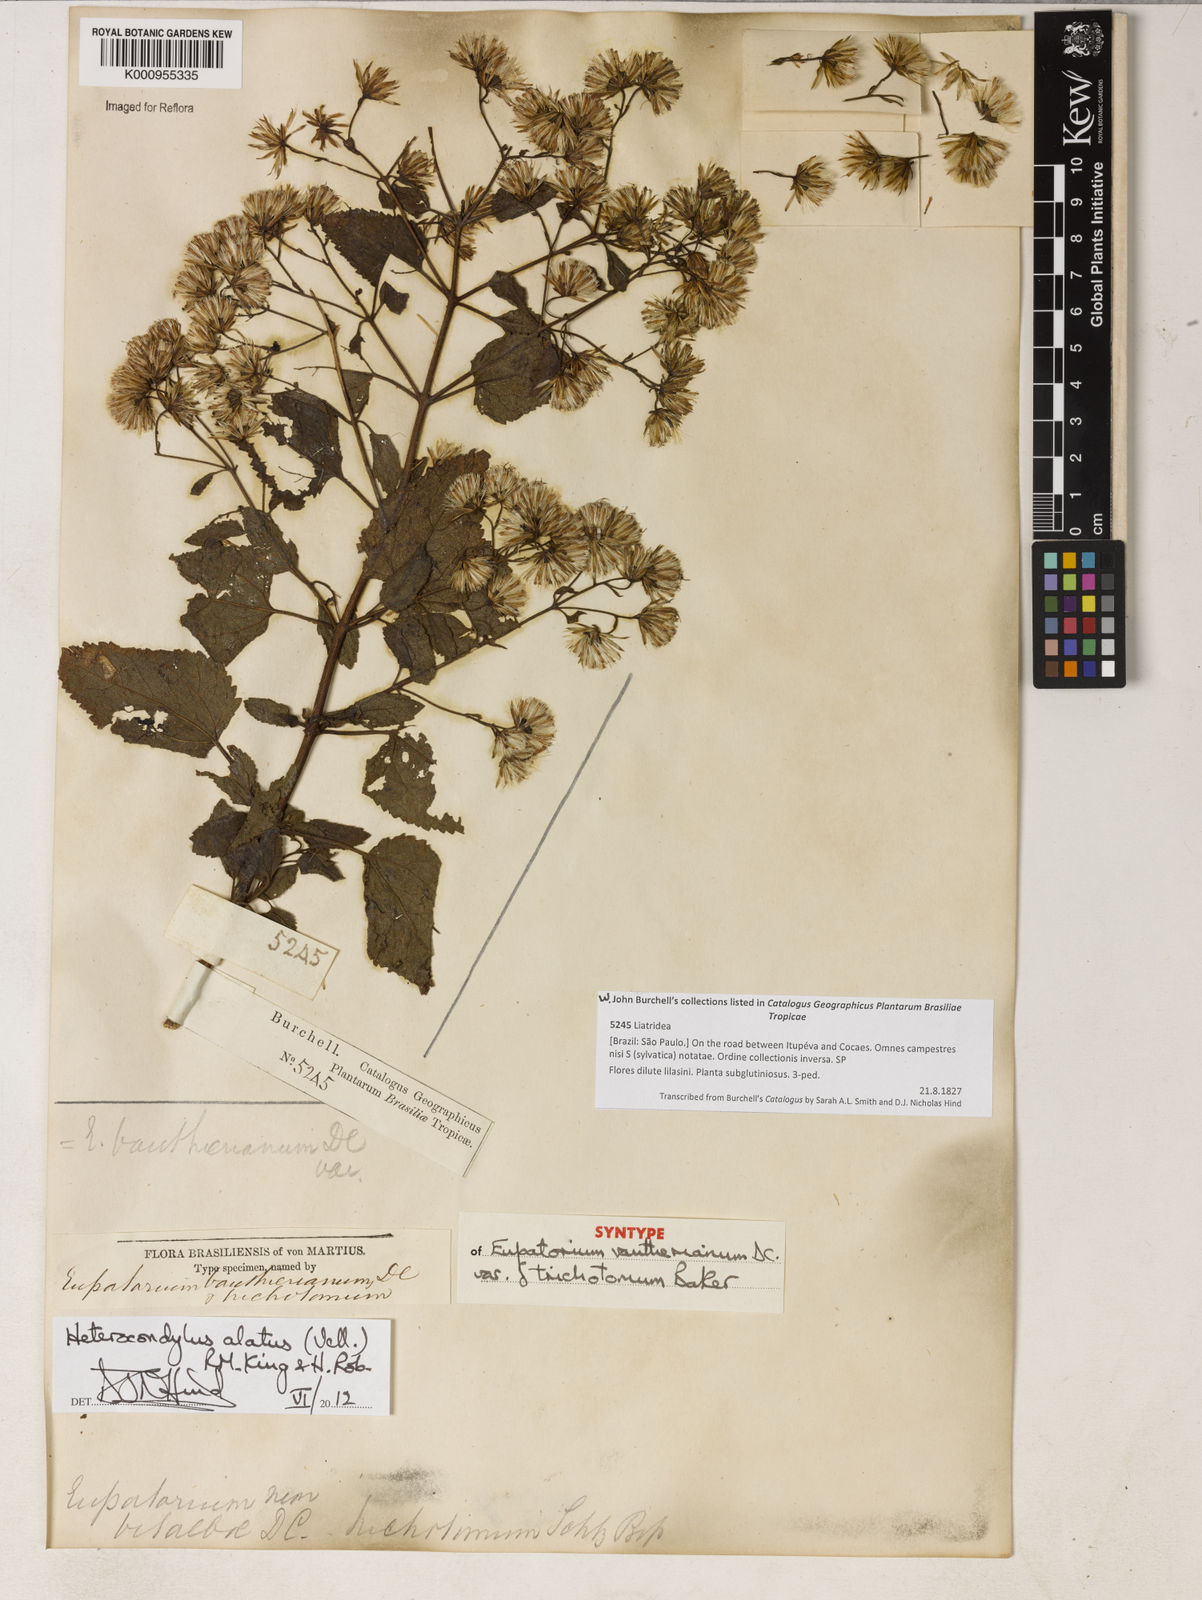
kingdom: Plantae
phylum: Tracheophyta
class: Magnoliopsida
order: Asterales
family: Asteraceae
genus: Heterocondylus
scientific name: Heterocondylus alatus
